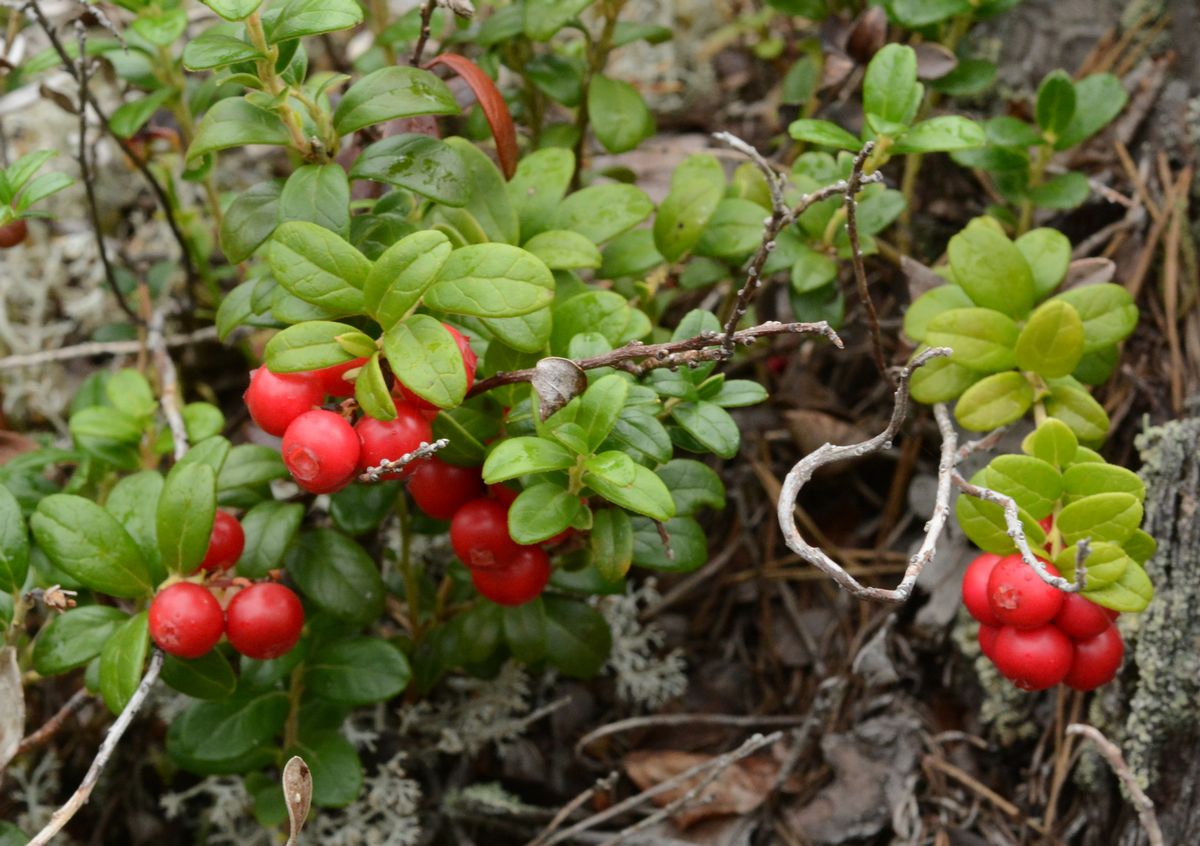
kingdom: Plantae
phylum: Tracheophyta
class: Magnoliopsida
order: Ericales
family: Ericaceae
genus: Vaccinium
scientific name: Vaccinium vitis-idaea
